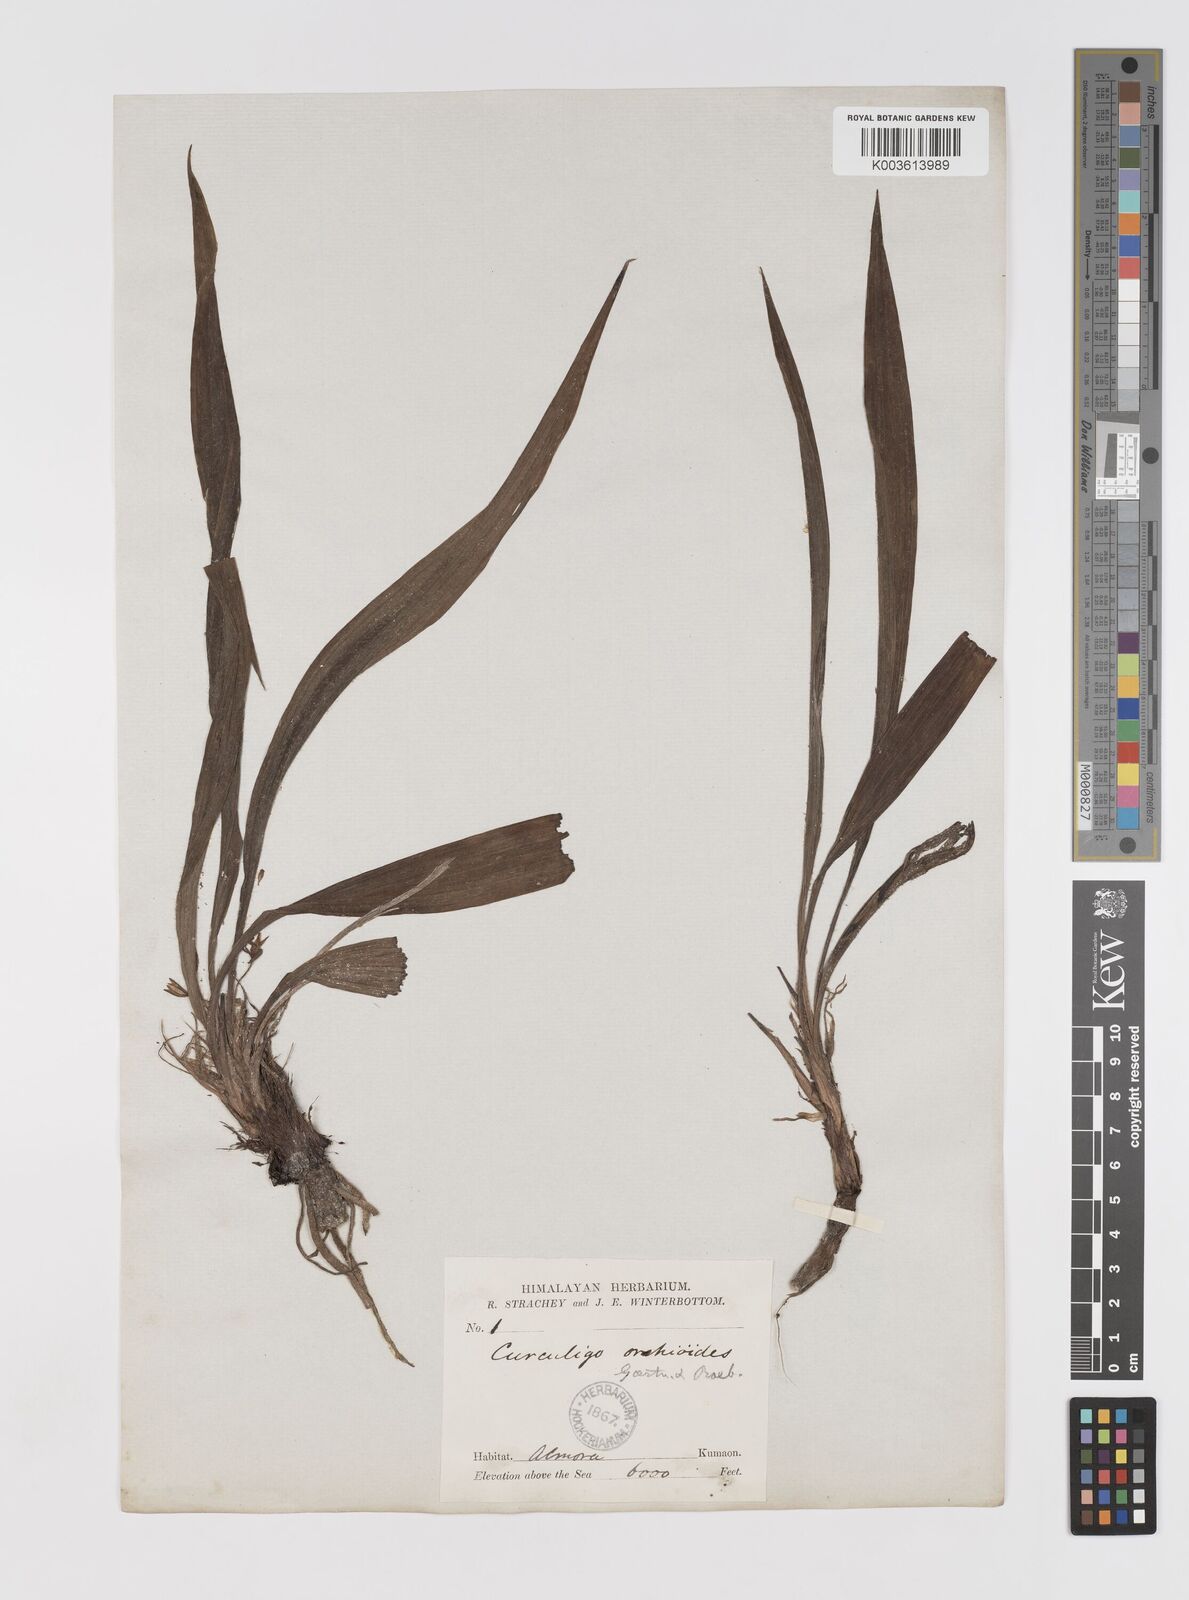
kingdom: Plantae
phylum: Tracheophyta
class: Liliopsida
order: Asparagales
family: Hypoxidaceae
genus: Curculigo
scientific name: Curculigo ensifolia
